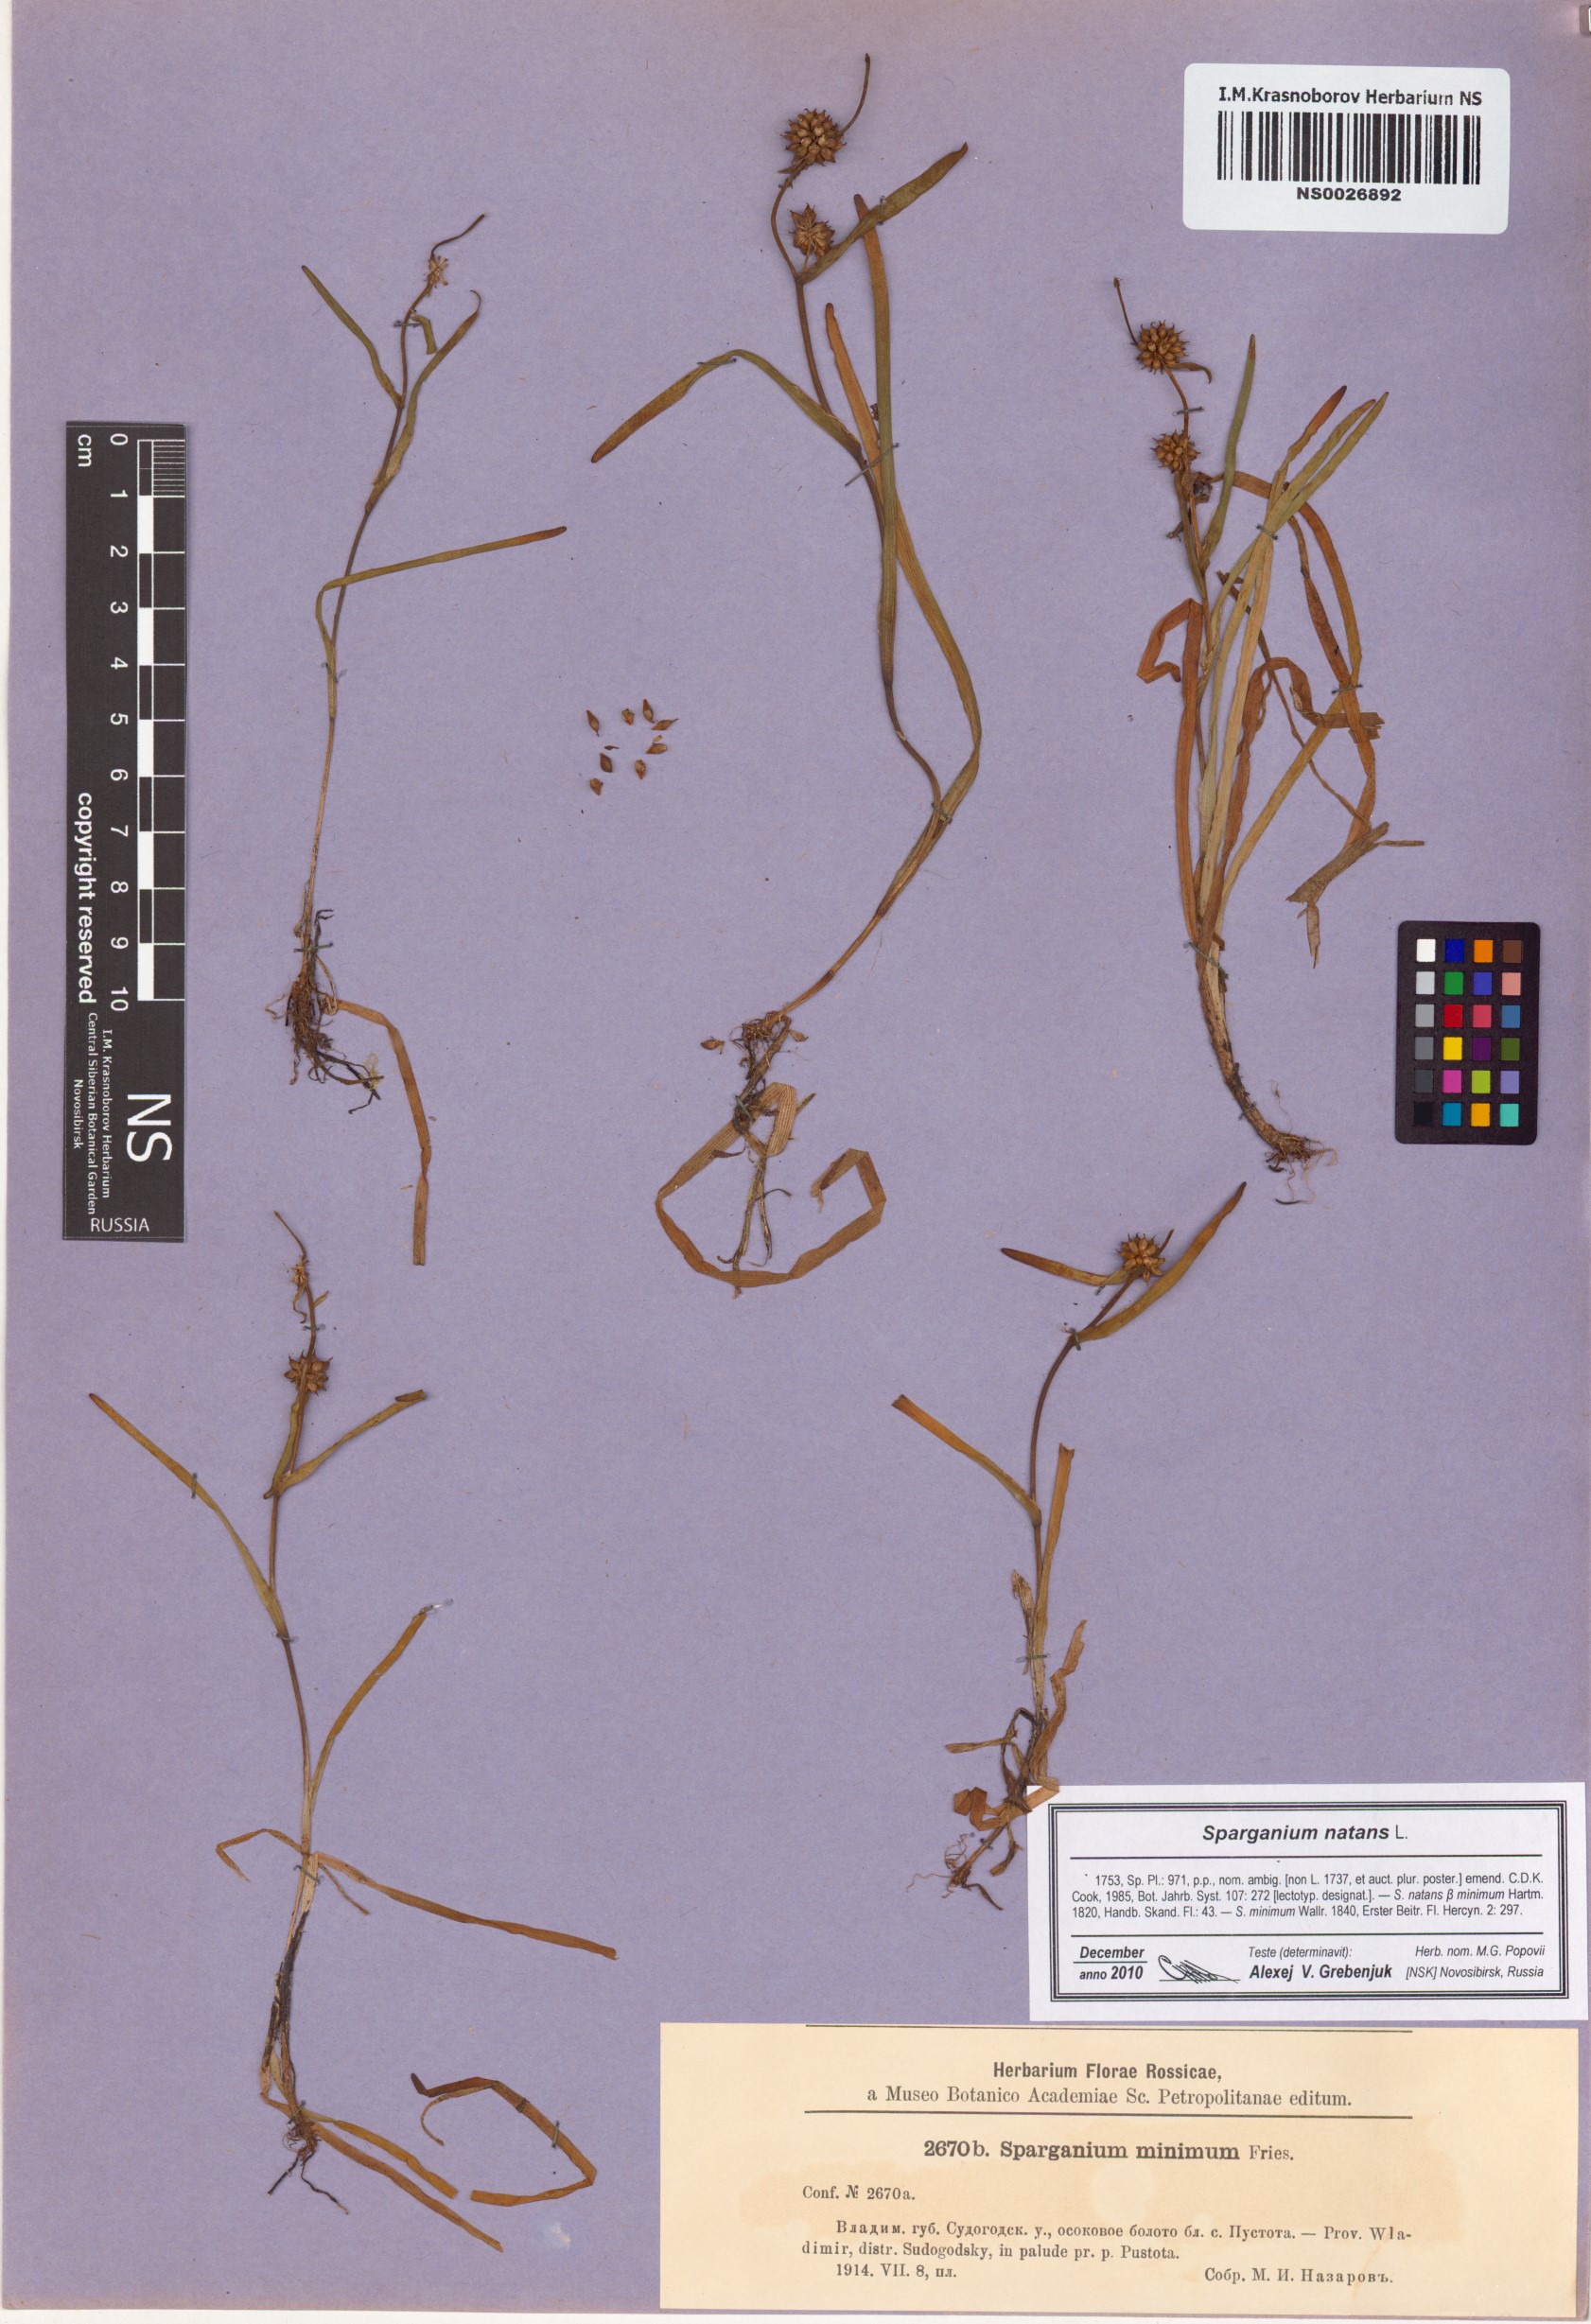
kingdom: Plantae
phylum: Tracheophyta
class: Liliopsida
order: Poales
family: Typhaceae
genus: Sparganium
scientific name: Sparganium natans
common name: Least bur-reed
